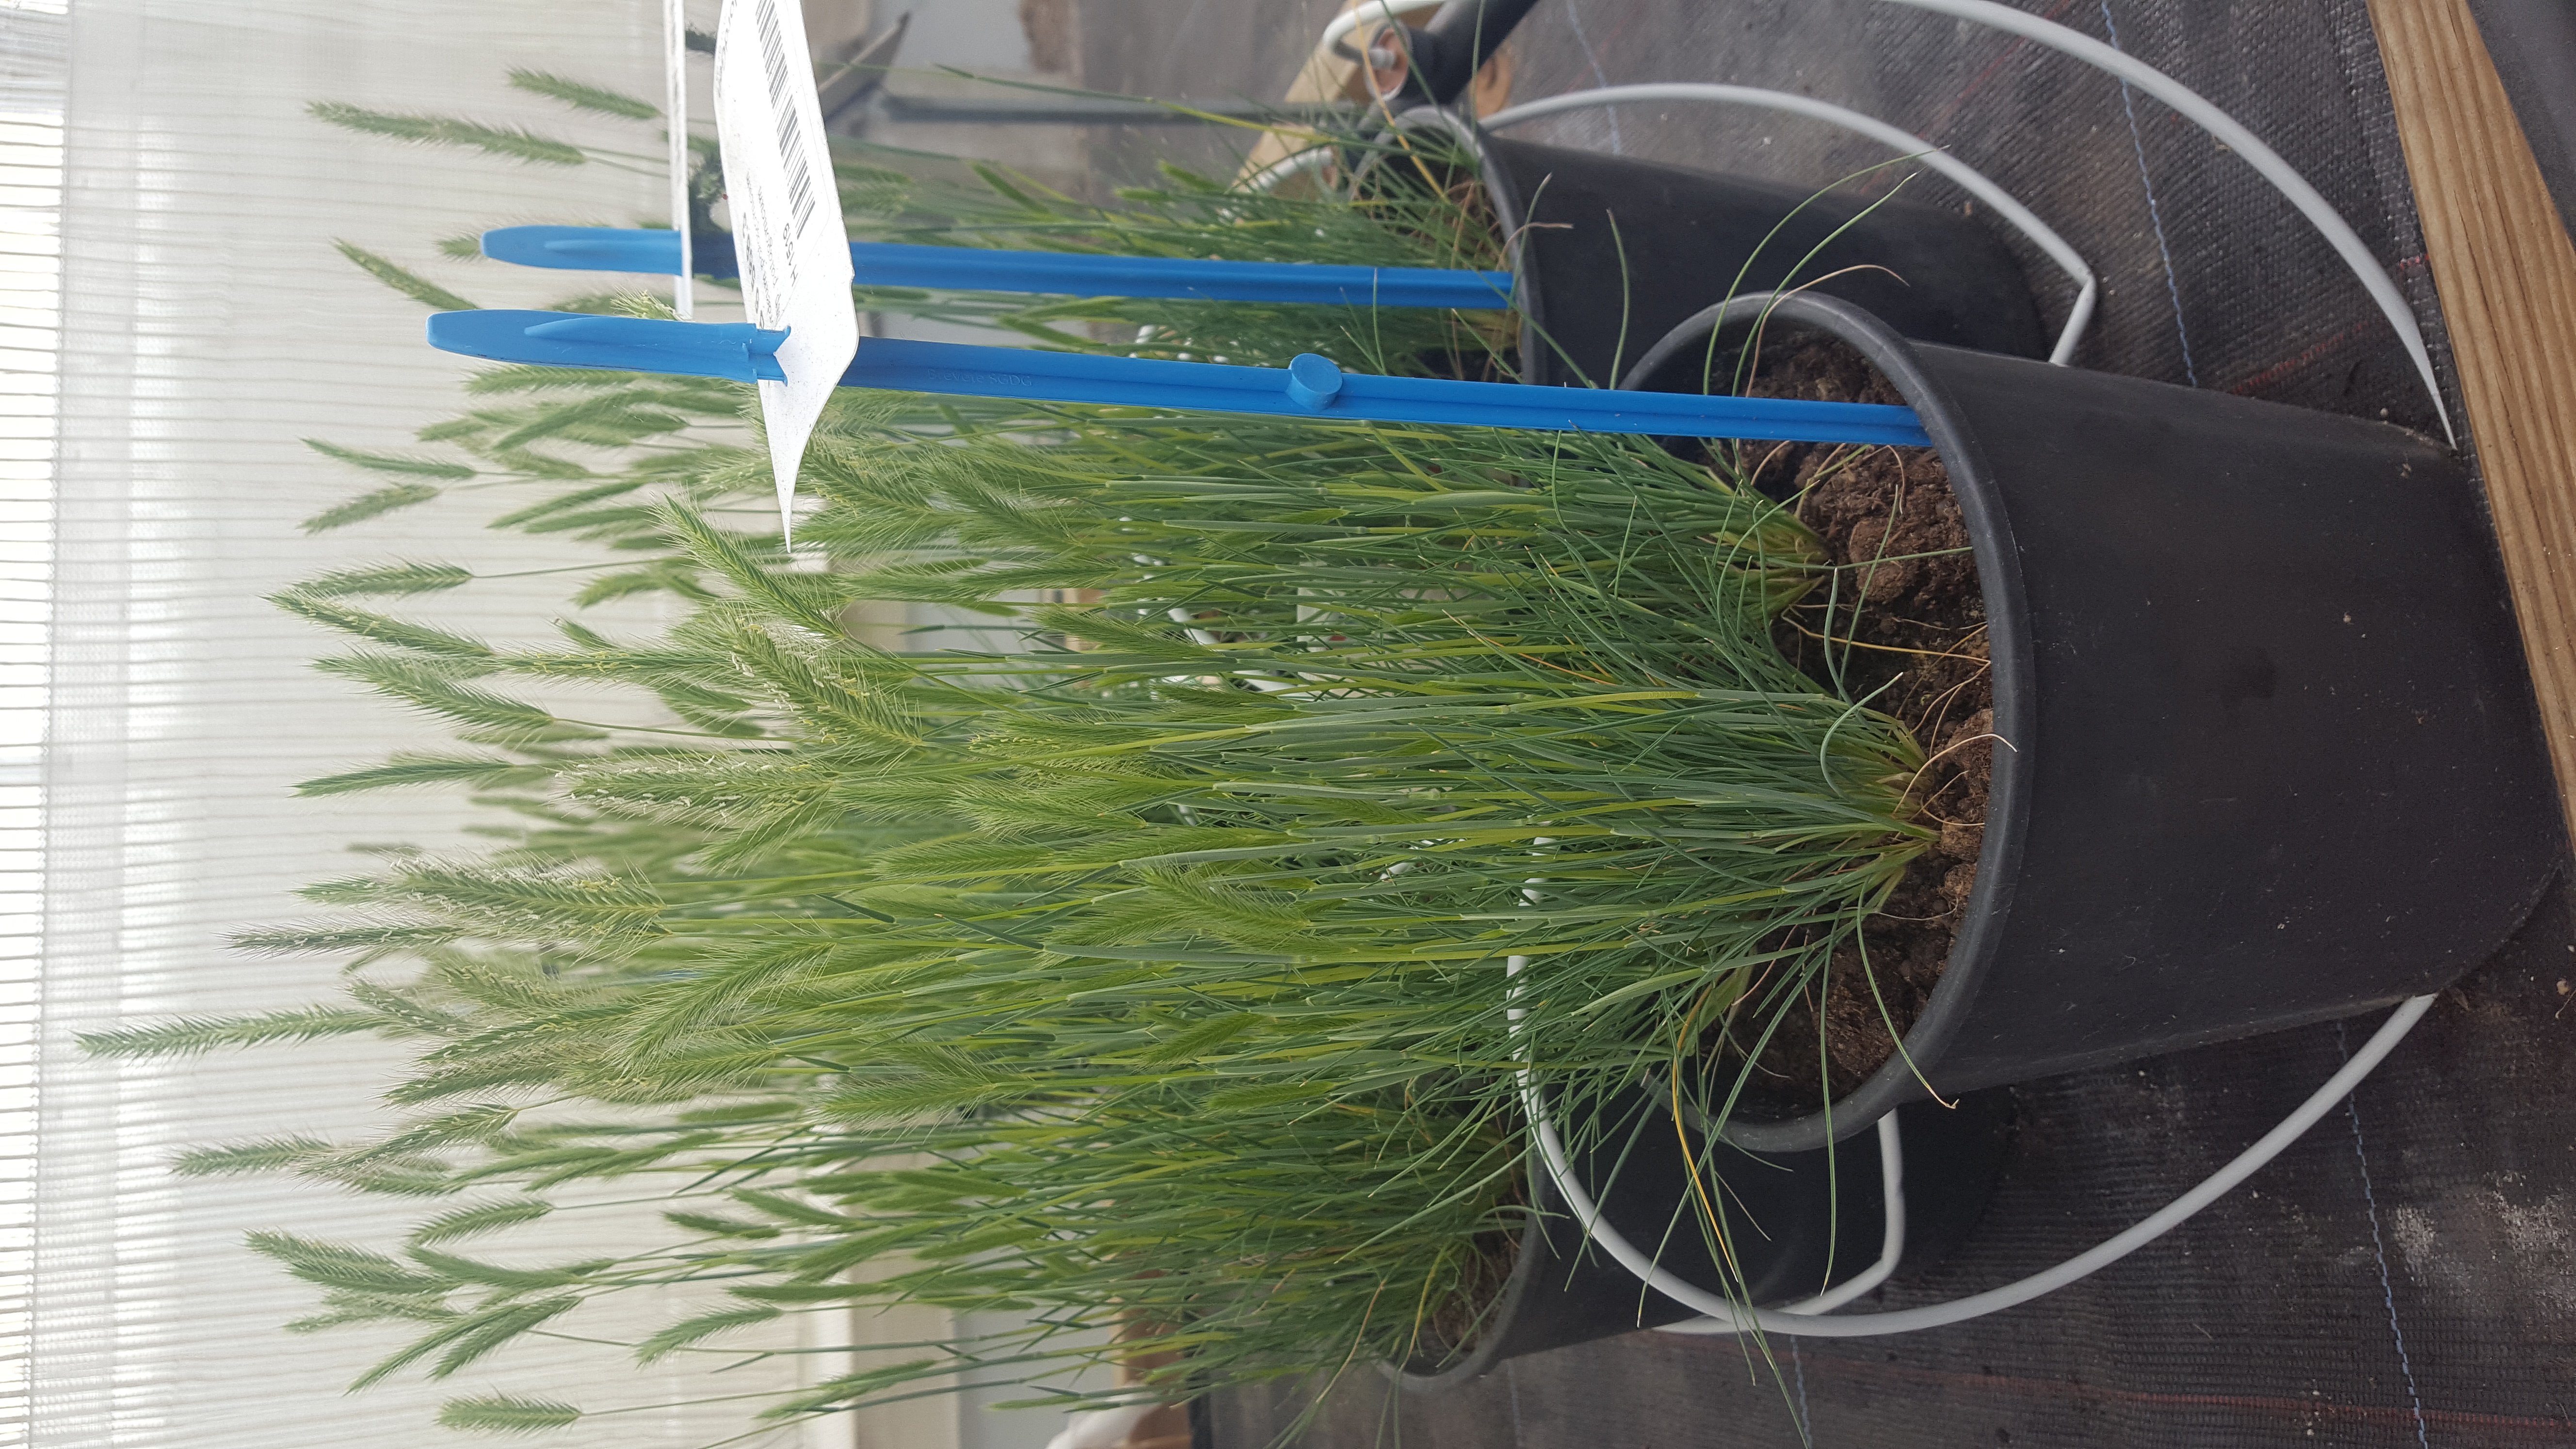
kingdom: Plantae
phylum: Tracheophyta
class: Liliopsida
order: Poales
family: Poaceae
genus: Hordeum
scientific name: Hordeum patagonicum
